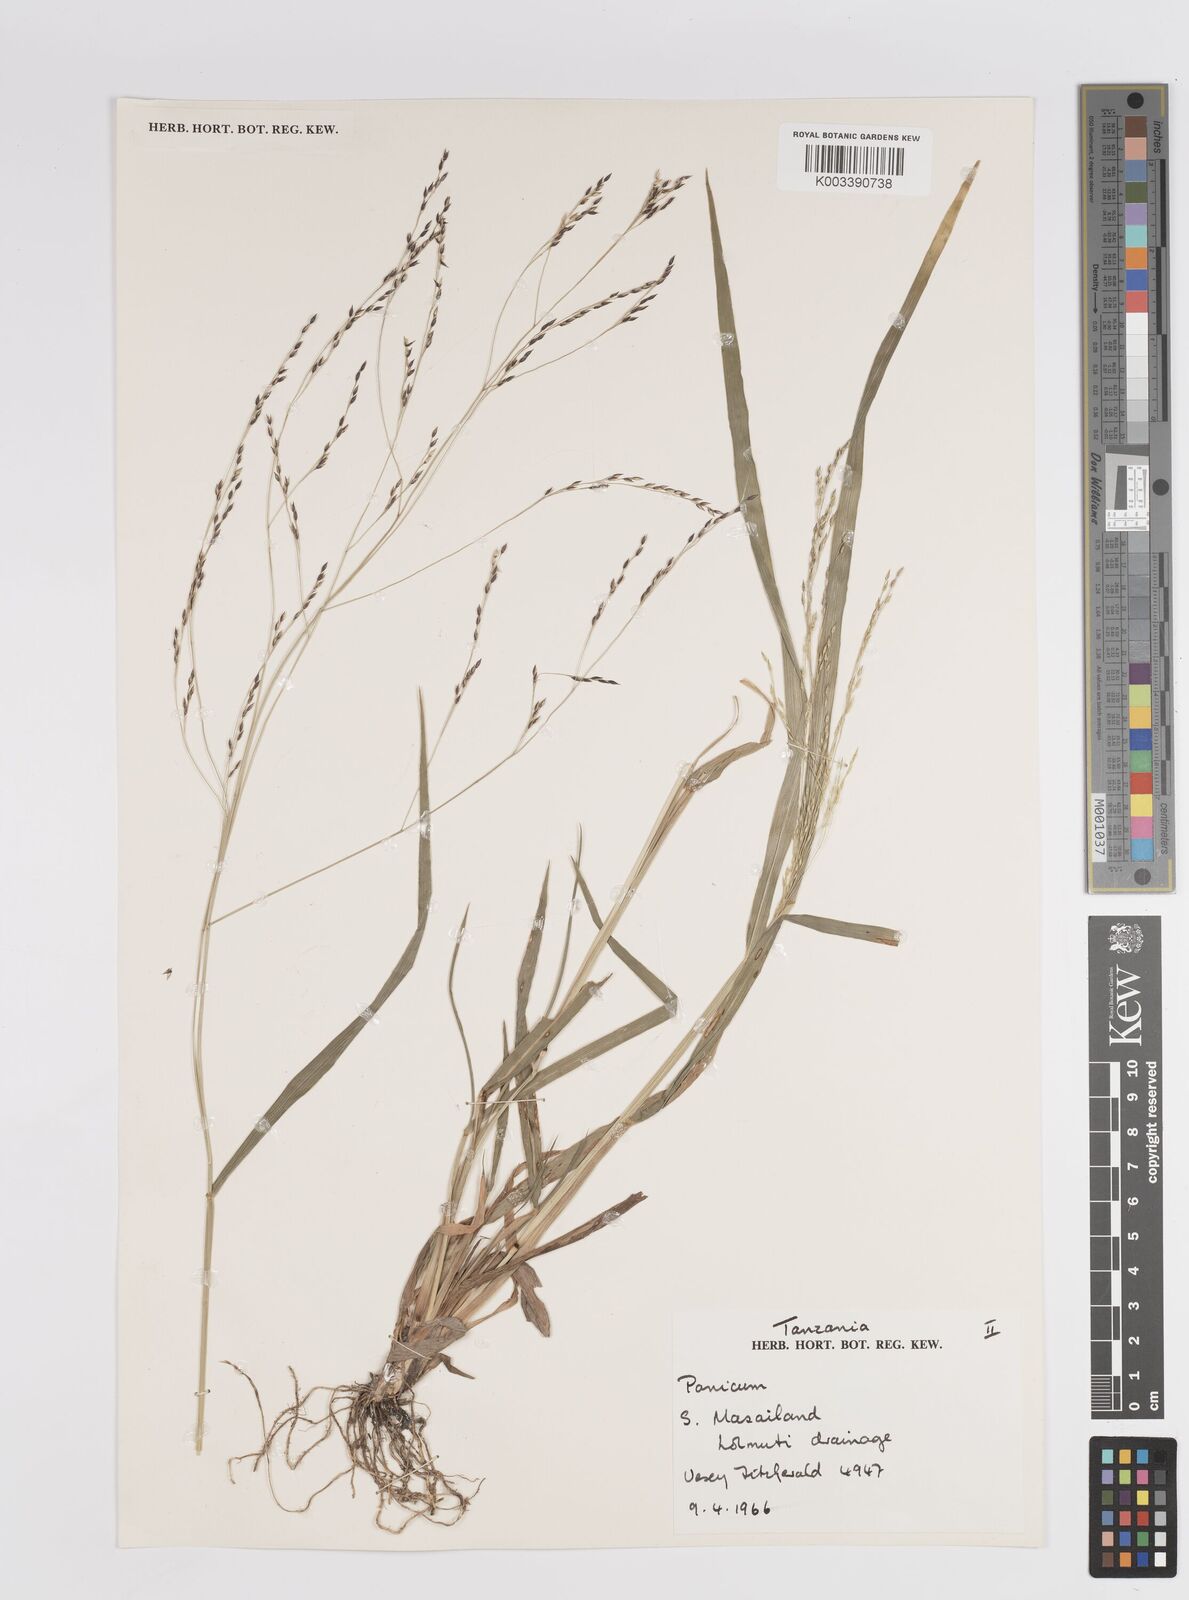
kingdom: Plantae
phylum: Tracheophyta
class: Liliopsida
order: Poales
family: Poaceae
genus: Panicum
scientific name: Panicum porphyrrhizos
